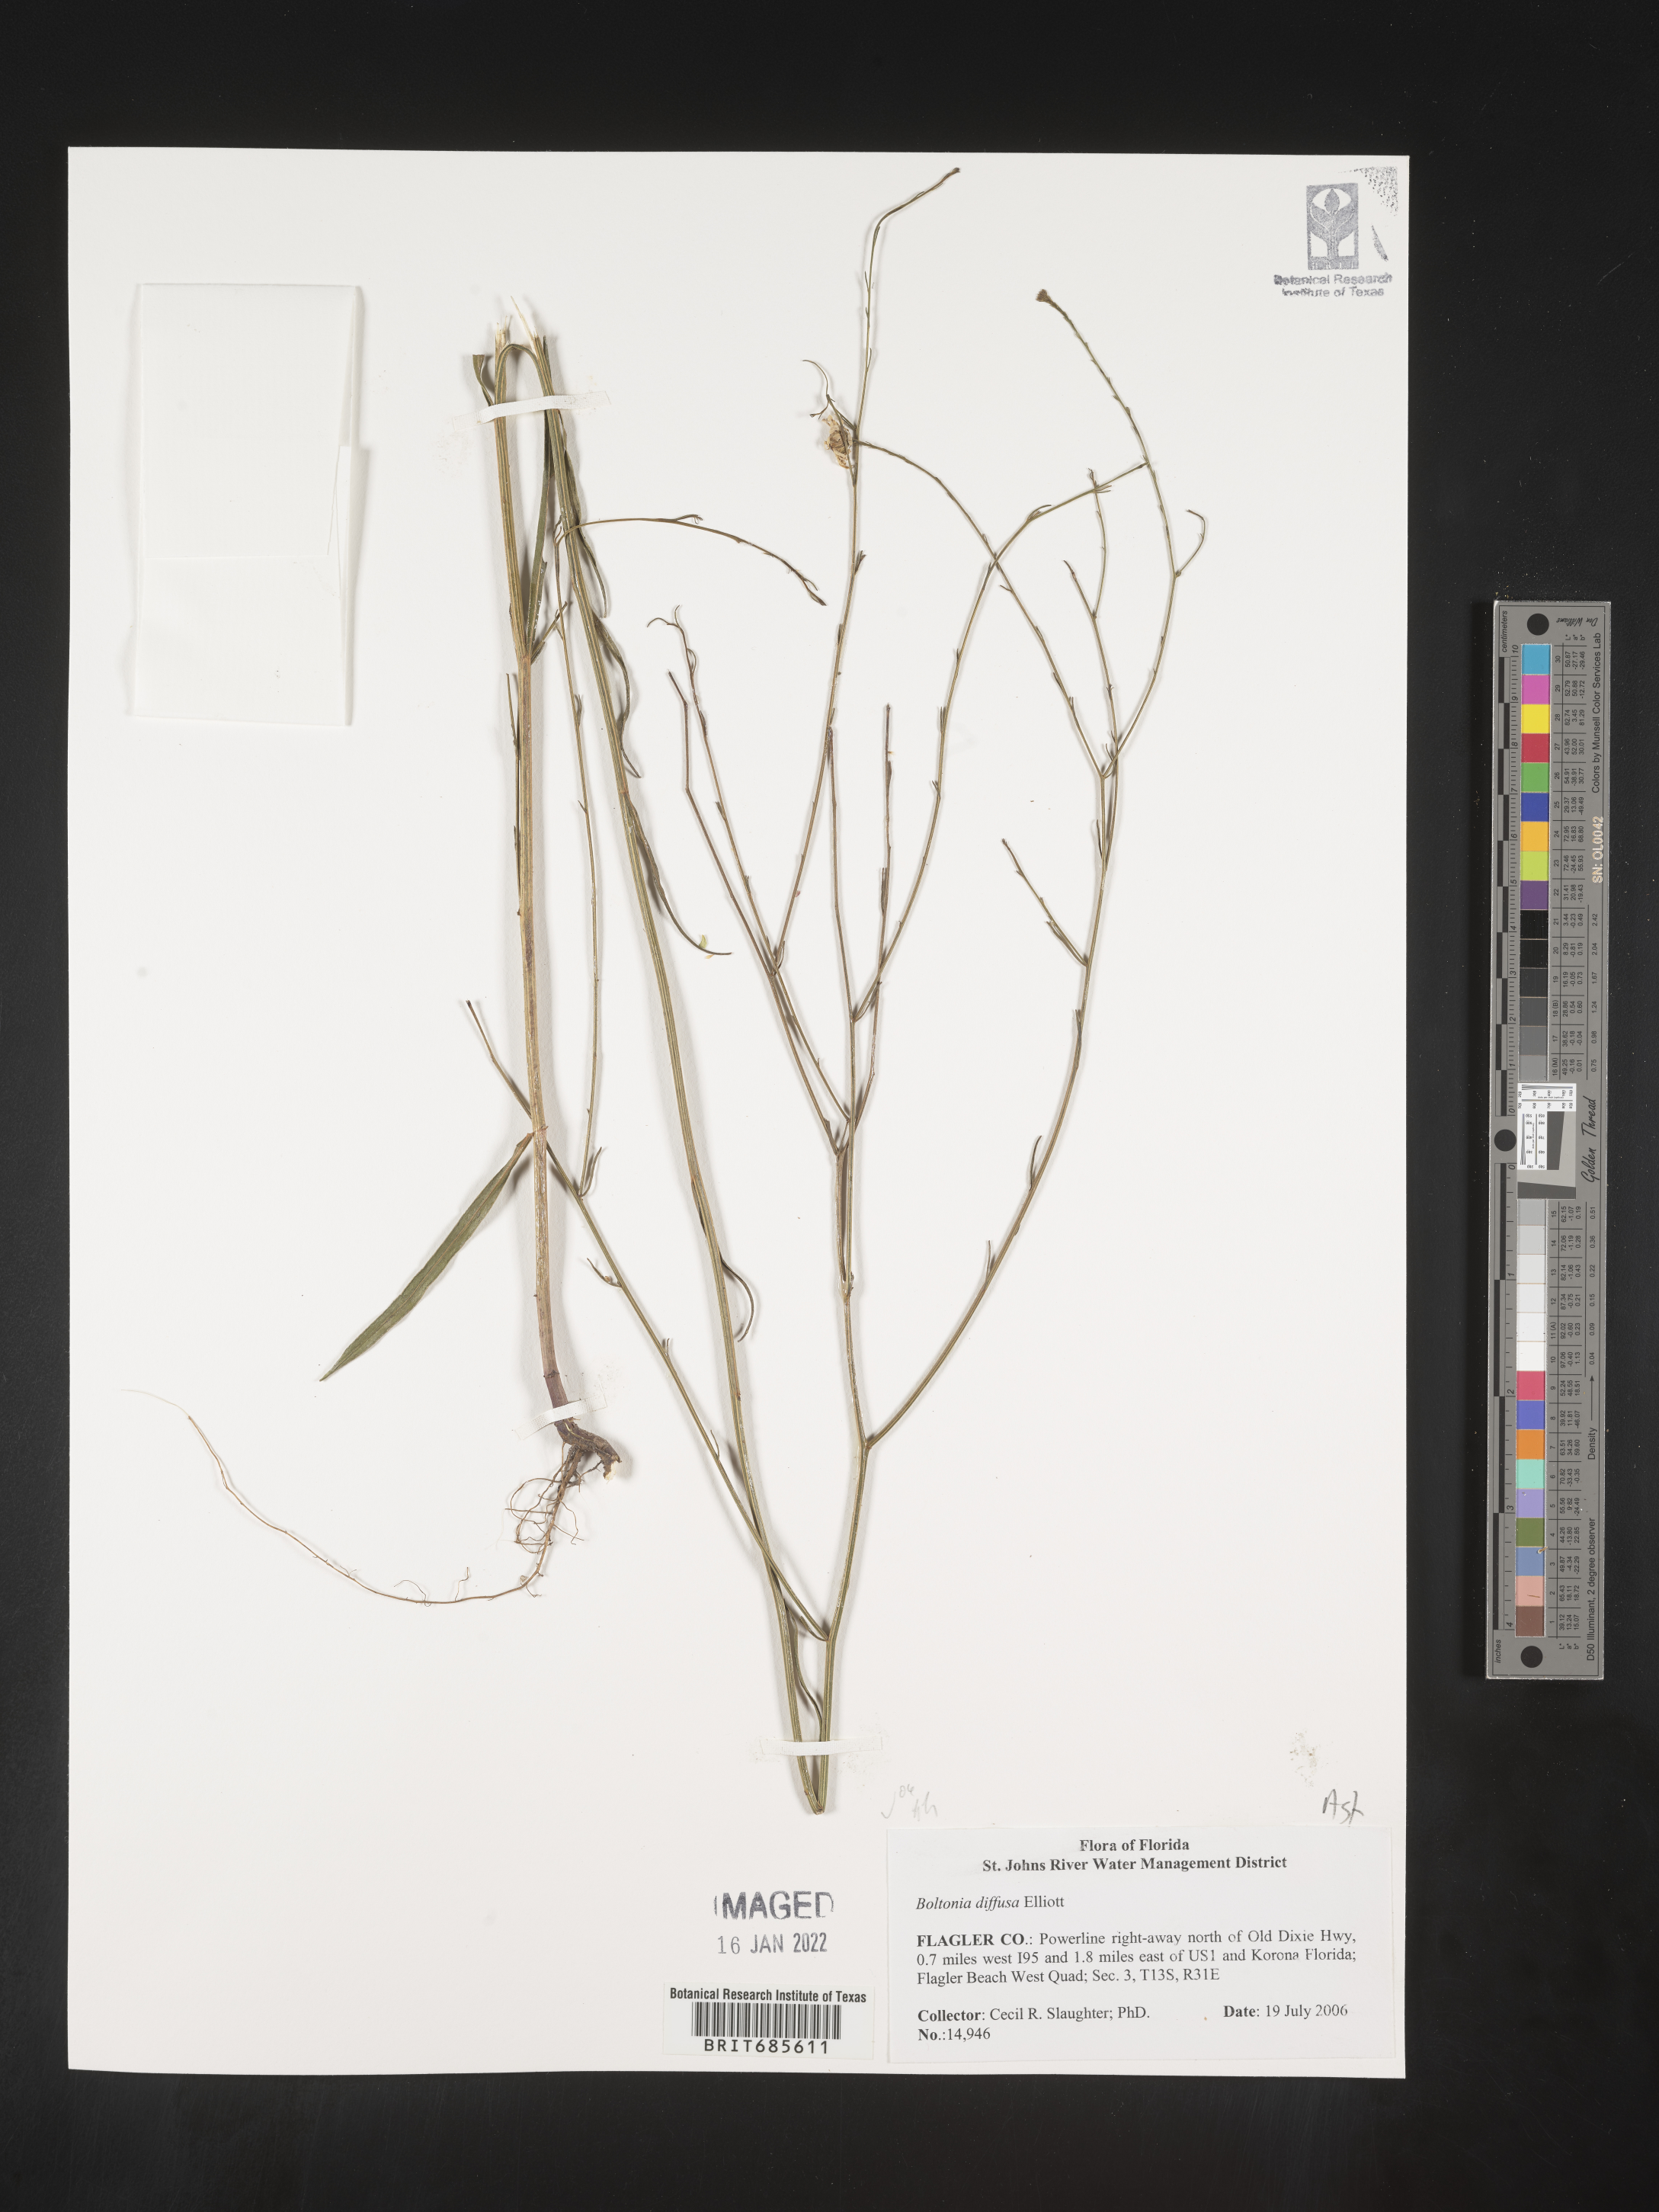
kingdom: Plantae
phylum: Tracheophyta
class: Magnoliopsida
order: Asterales
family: Asteraceae
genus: Boltonia
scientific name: Boltonia diffusa
